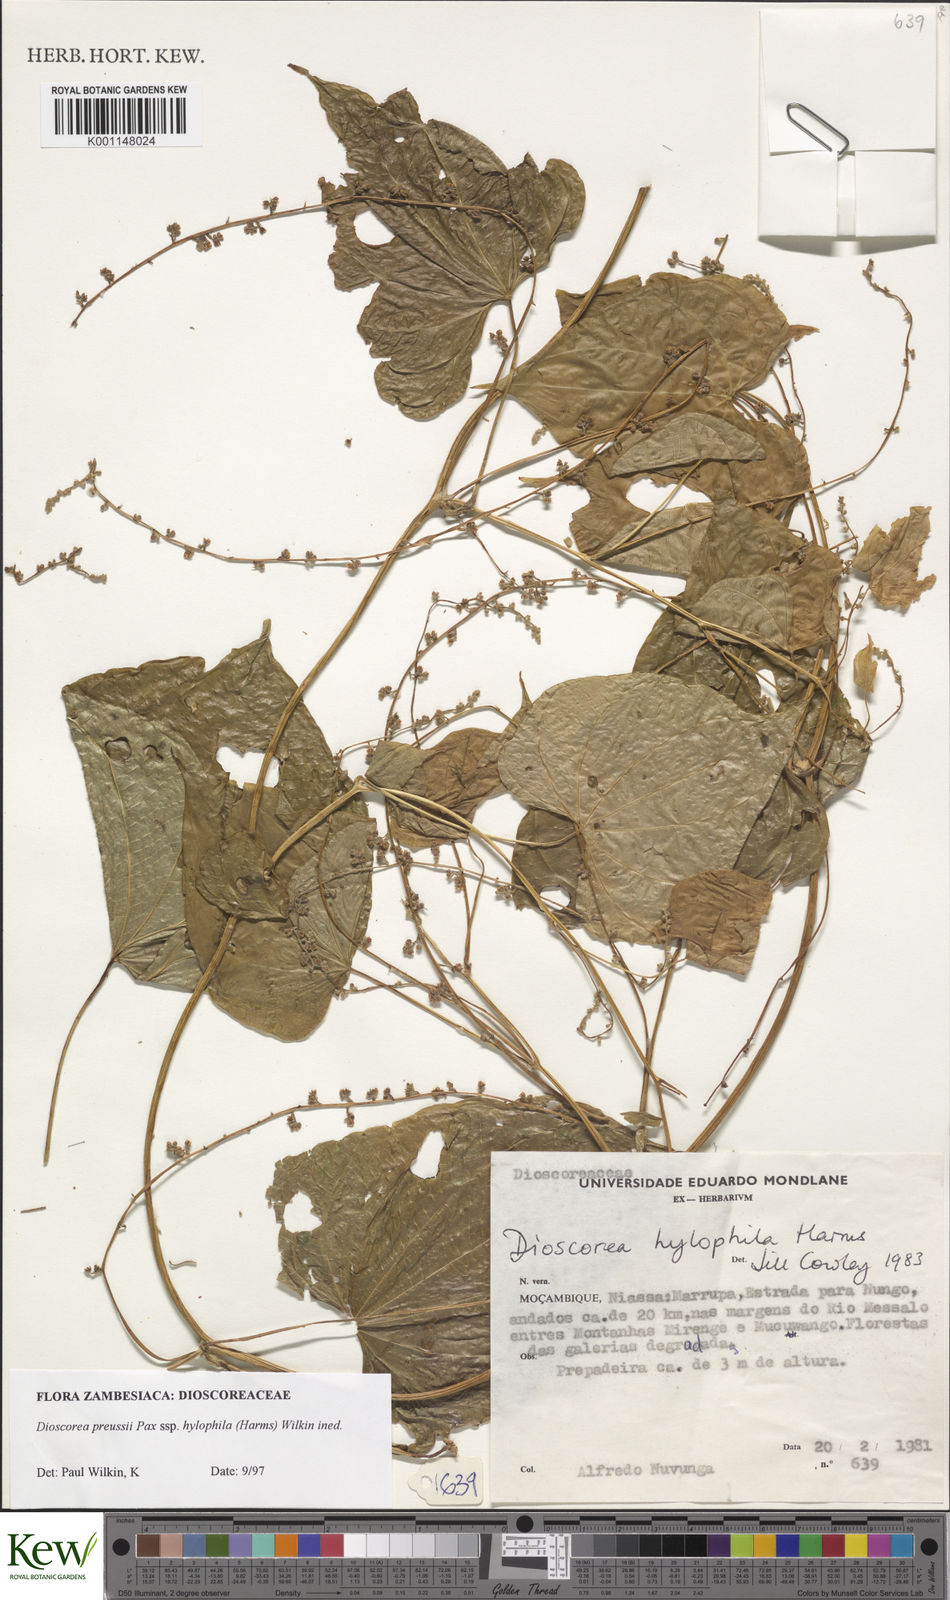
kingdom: Plantae
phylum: Tracheophyta
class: Liliopsida
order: Dioscoreales
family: Dioscoreaceae
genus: Dioscorea
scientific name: Dioscorea preussii
